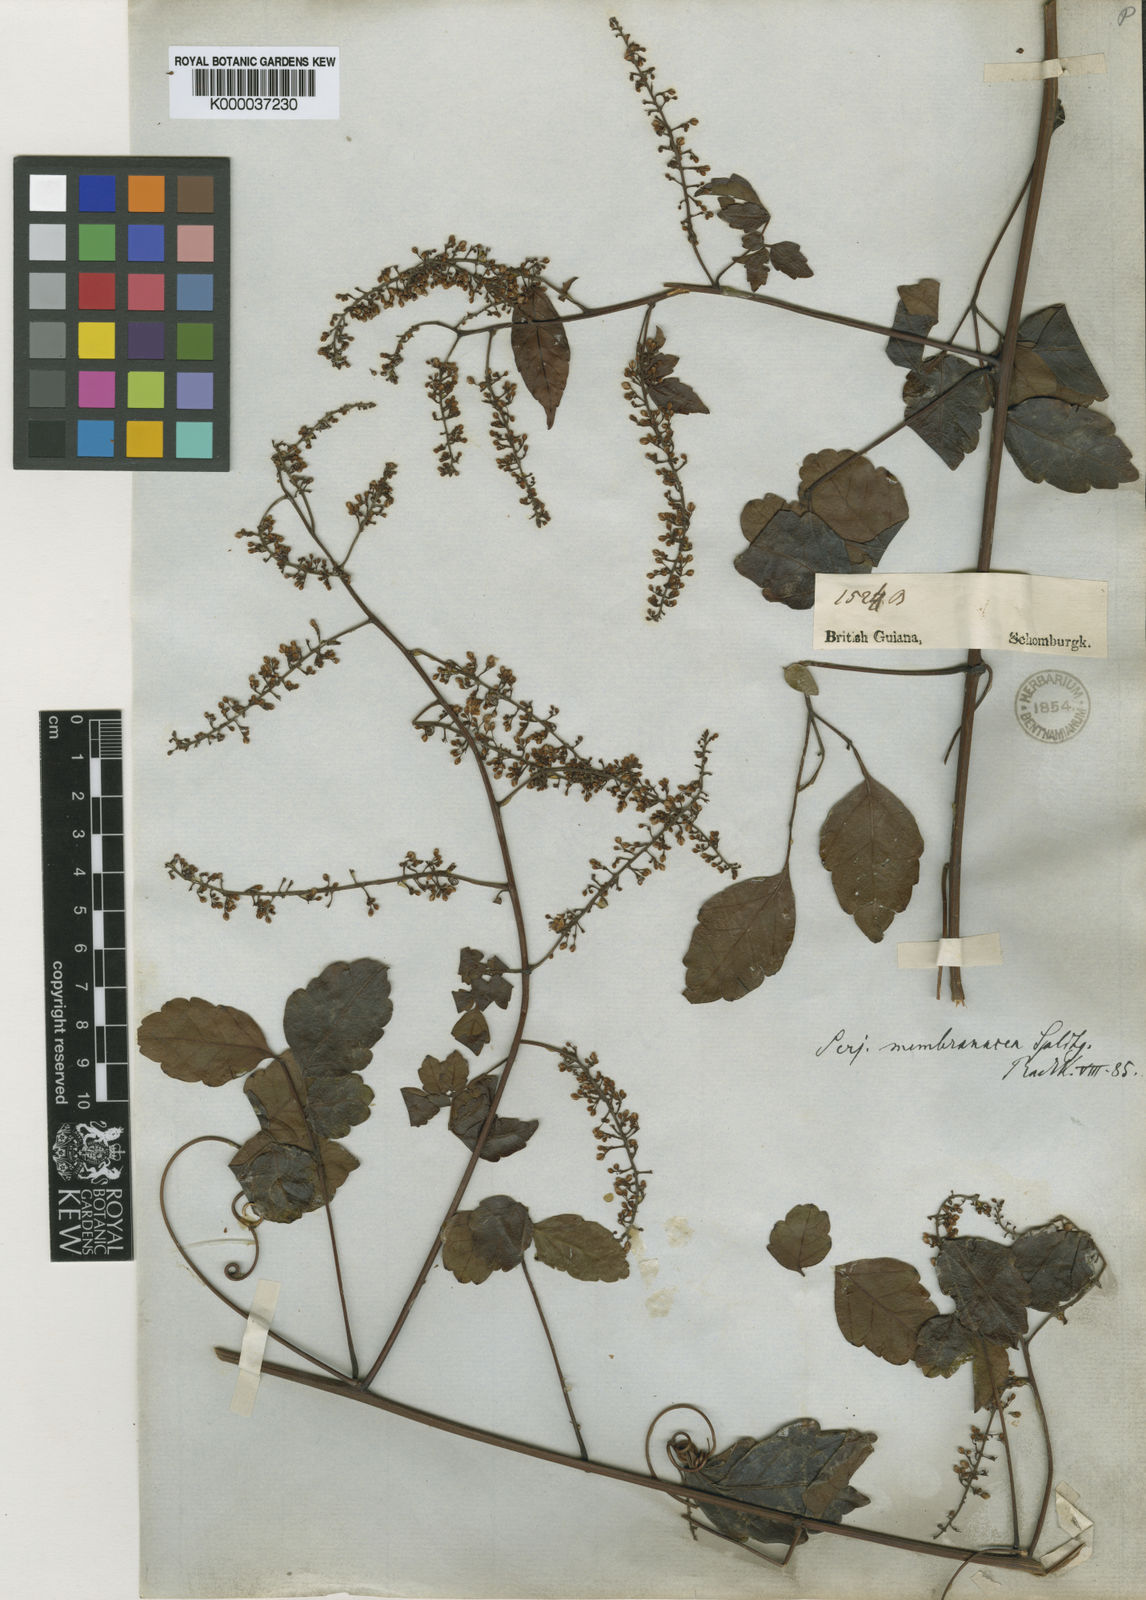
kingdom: Plantae
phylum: Tracheophyta
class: Magnoliopsida
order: Sapindales
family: Sapindaceae
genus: Serjania
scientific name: Serjania membranacea
